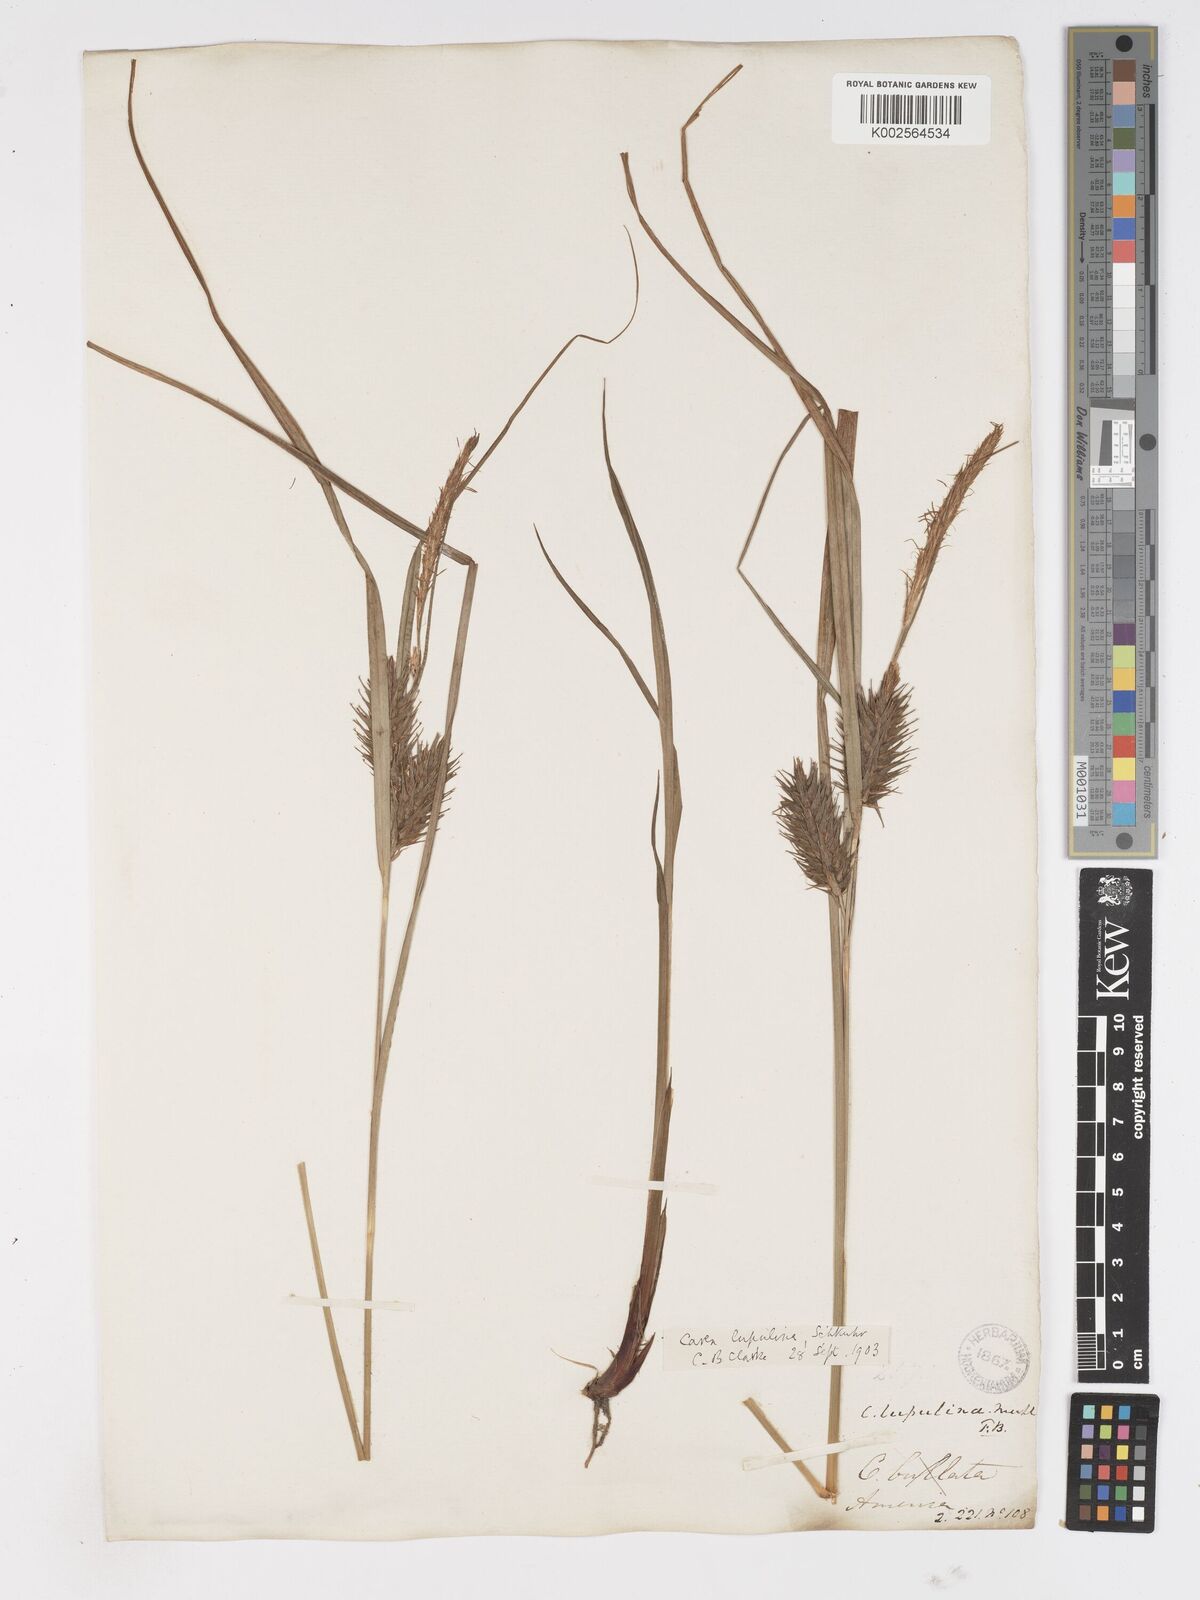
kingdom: Plantae
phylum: Tracheophyta
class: Liliopsida
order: Poales
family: Cyperaceae
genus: Carex
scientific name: Carex lupulina
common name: Hop sedge
